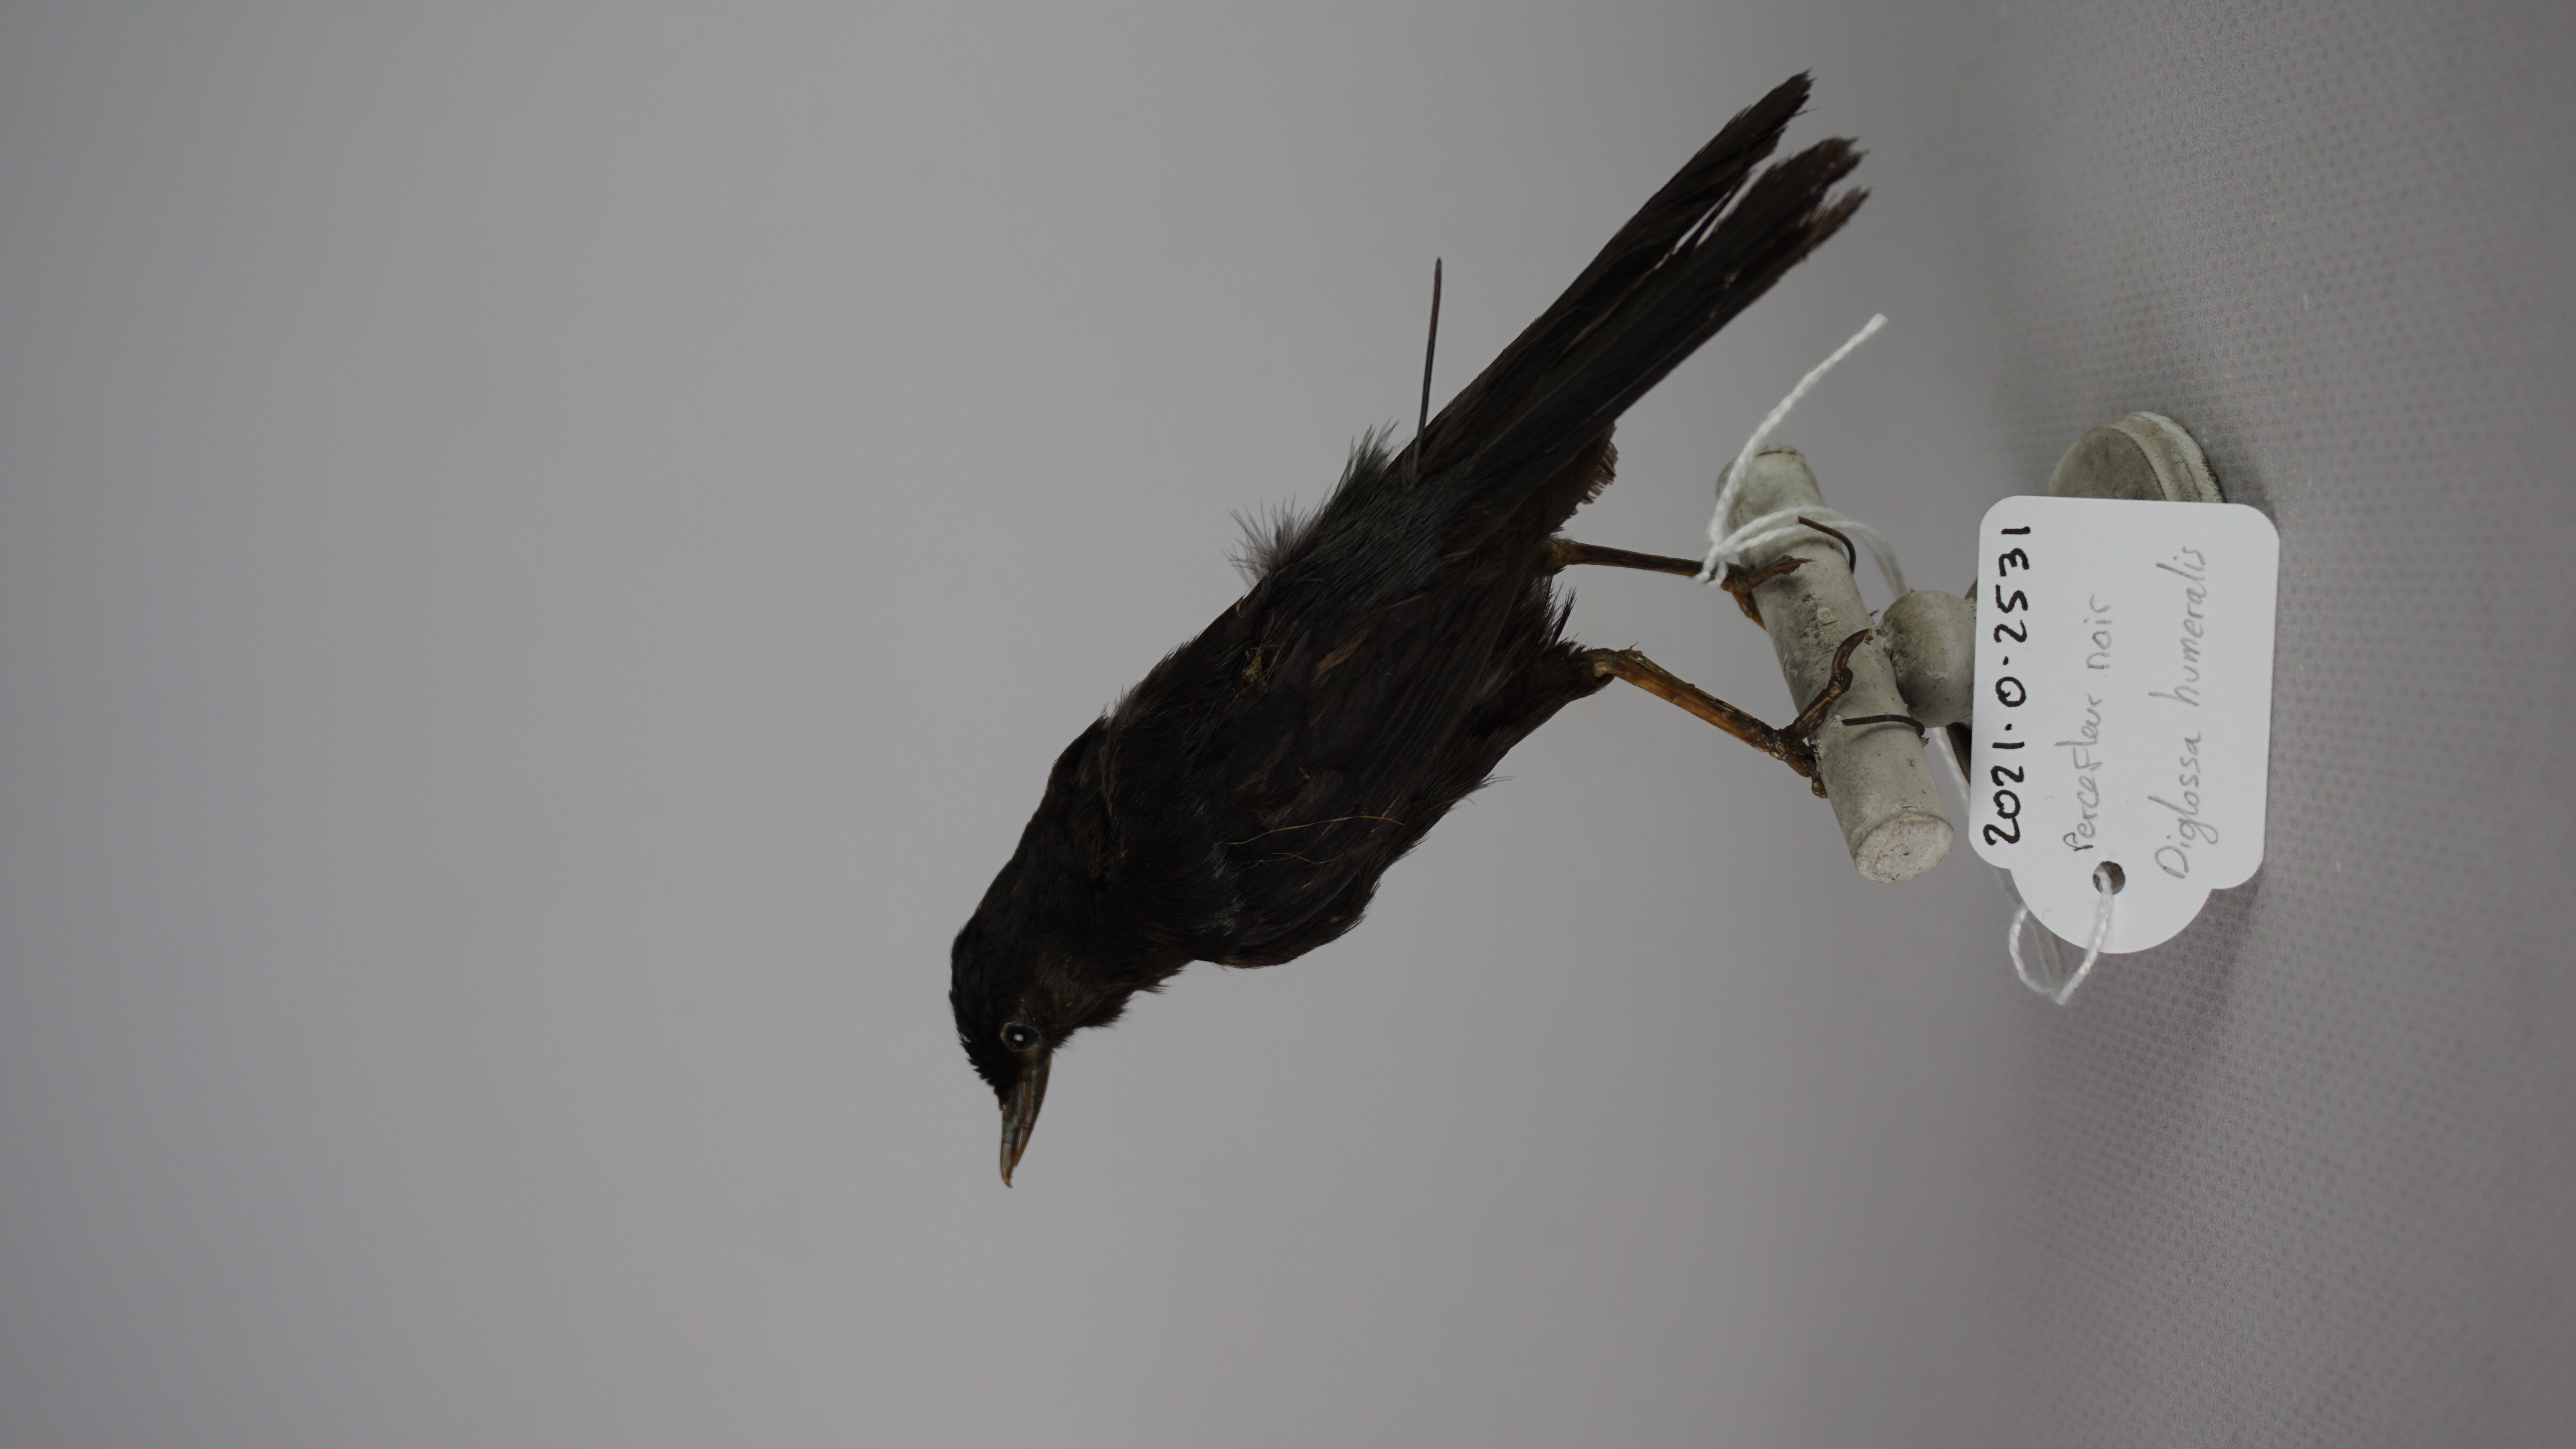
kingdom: Animalia
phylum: Chordata
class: Aves
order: Passeriformes
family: Thraupidae
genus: Diglossa
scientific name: Diglossa humeralis
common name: Black flowerpiercer
